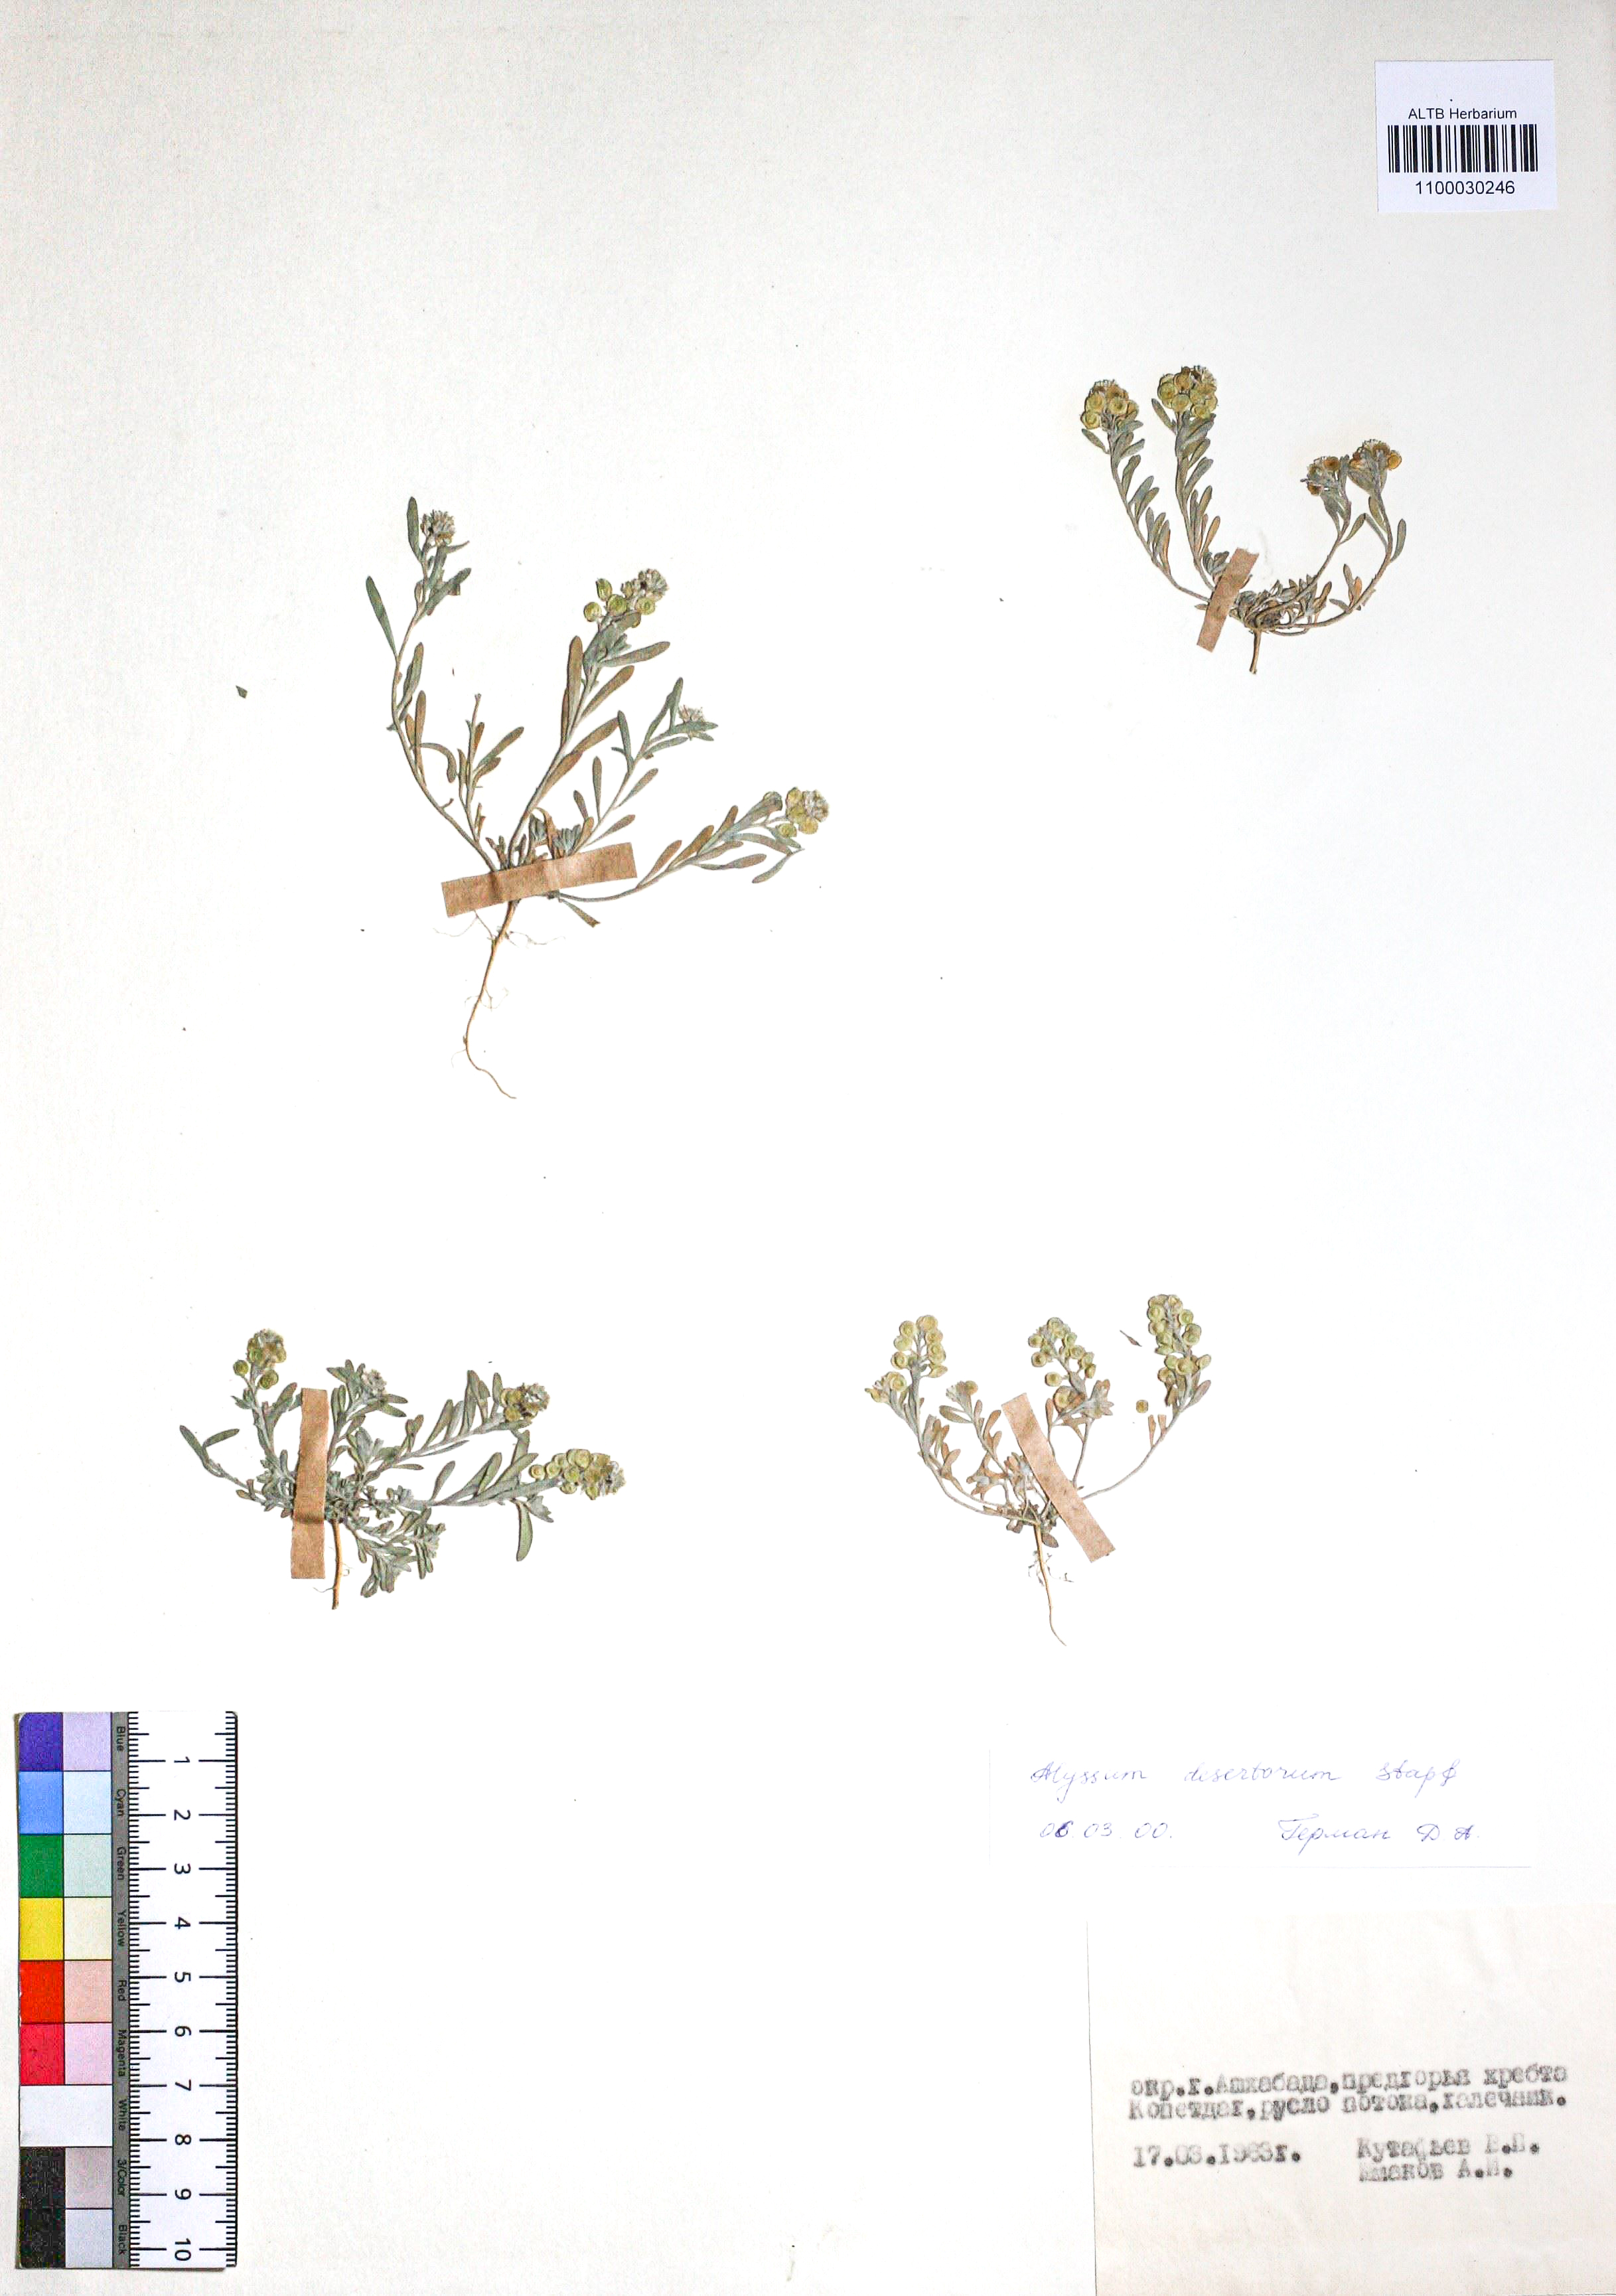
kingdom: Plantae
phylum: Tracheophyta
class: Magnoliopsida
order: Brassicales
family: Brassicaceae
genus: Alyssum
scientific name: Alyssum turkestanicum
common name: Desert alyssum
